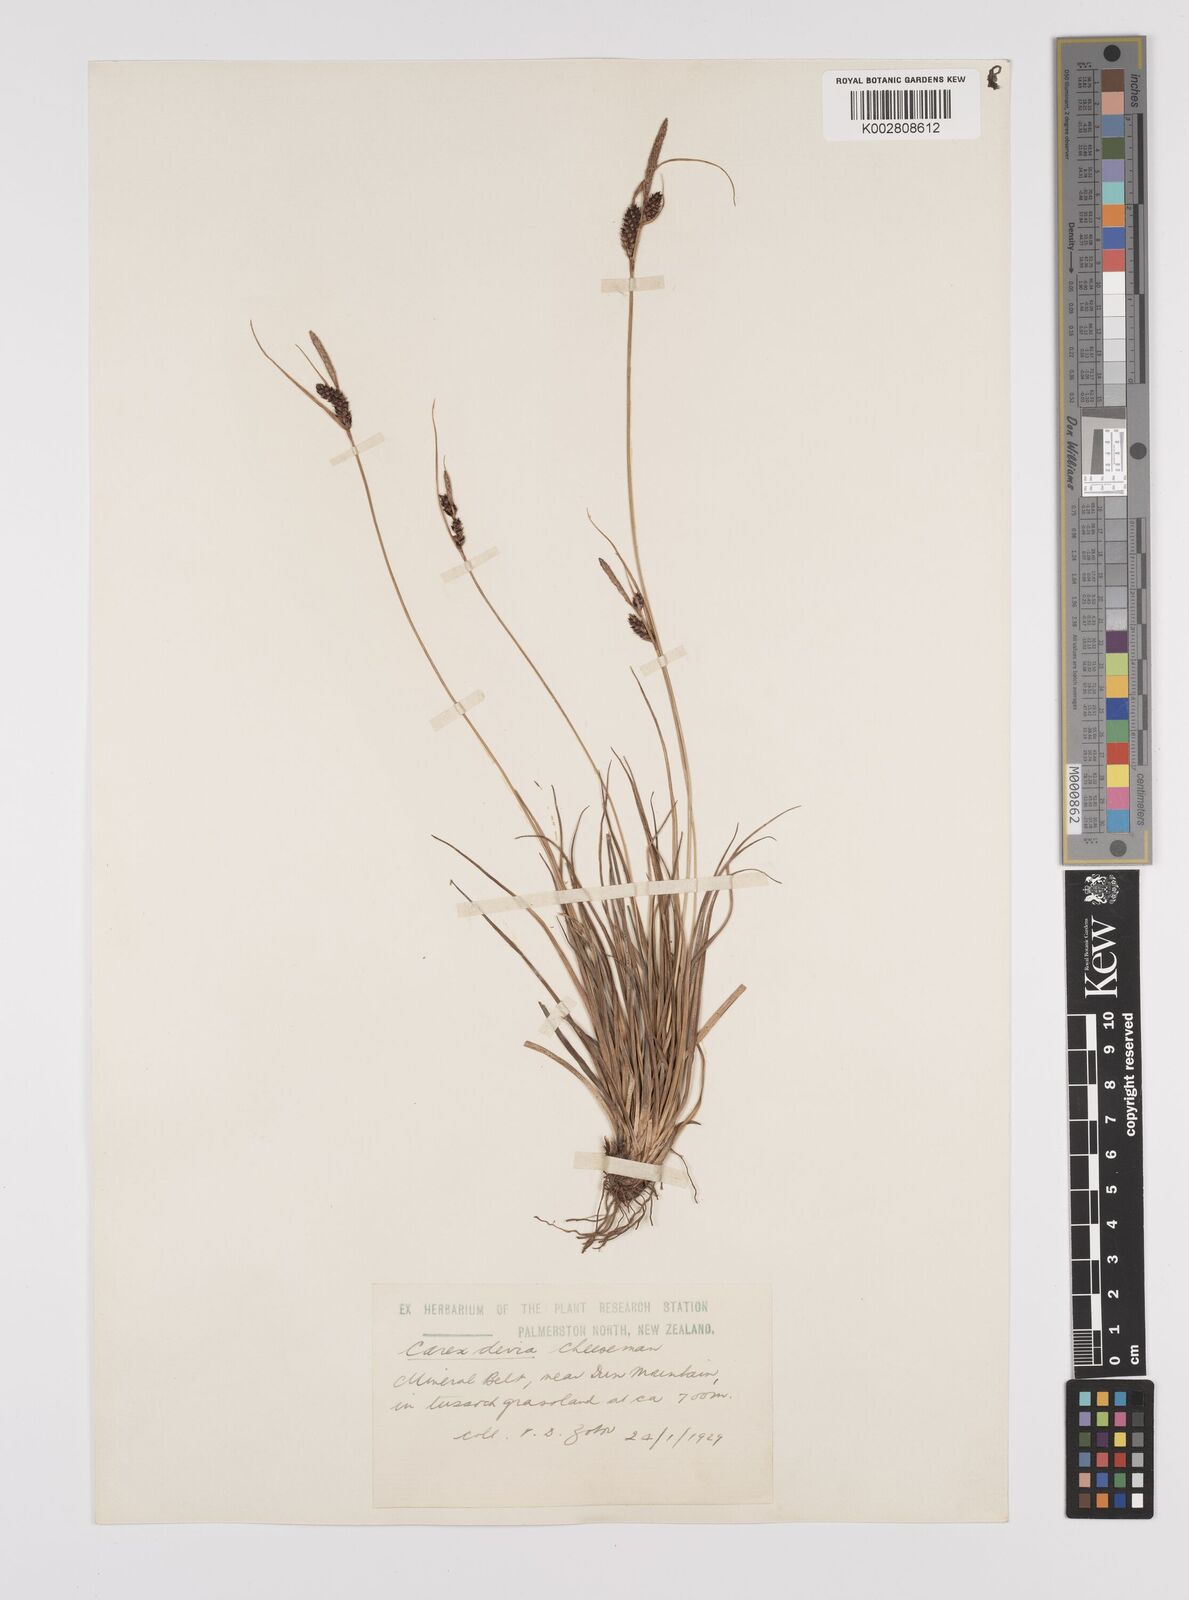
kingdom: Plantae
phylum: Tracheophyta
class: Liliopsida
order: Poales
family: Cyperaceae
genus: Carex
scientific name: Carex devia
